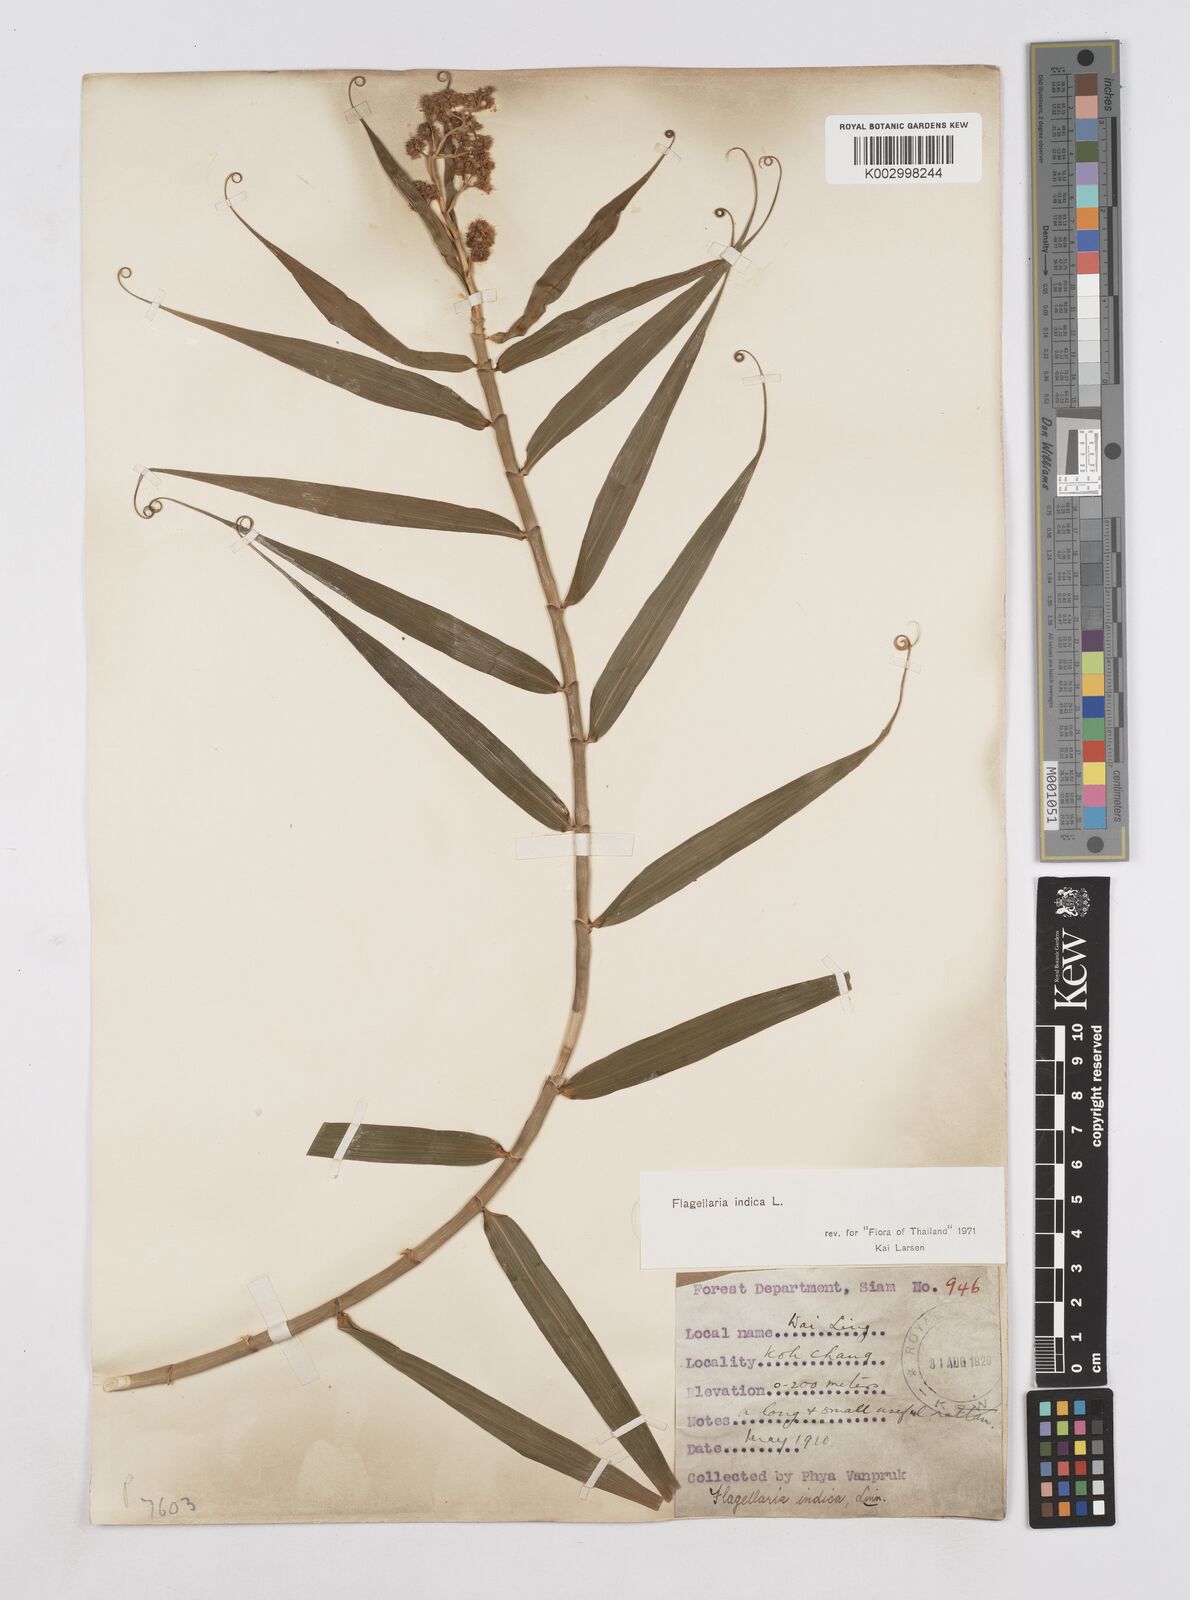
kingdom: Plantae
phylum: Tracheophyta
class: Liliopsida
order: Poales
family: Flagellariaceae
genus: Flagellaria
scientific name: Flagellaria indica
